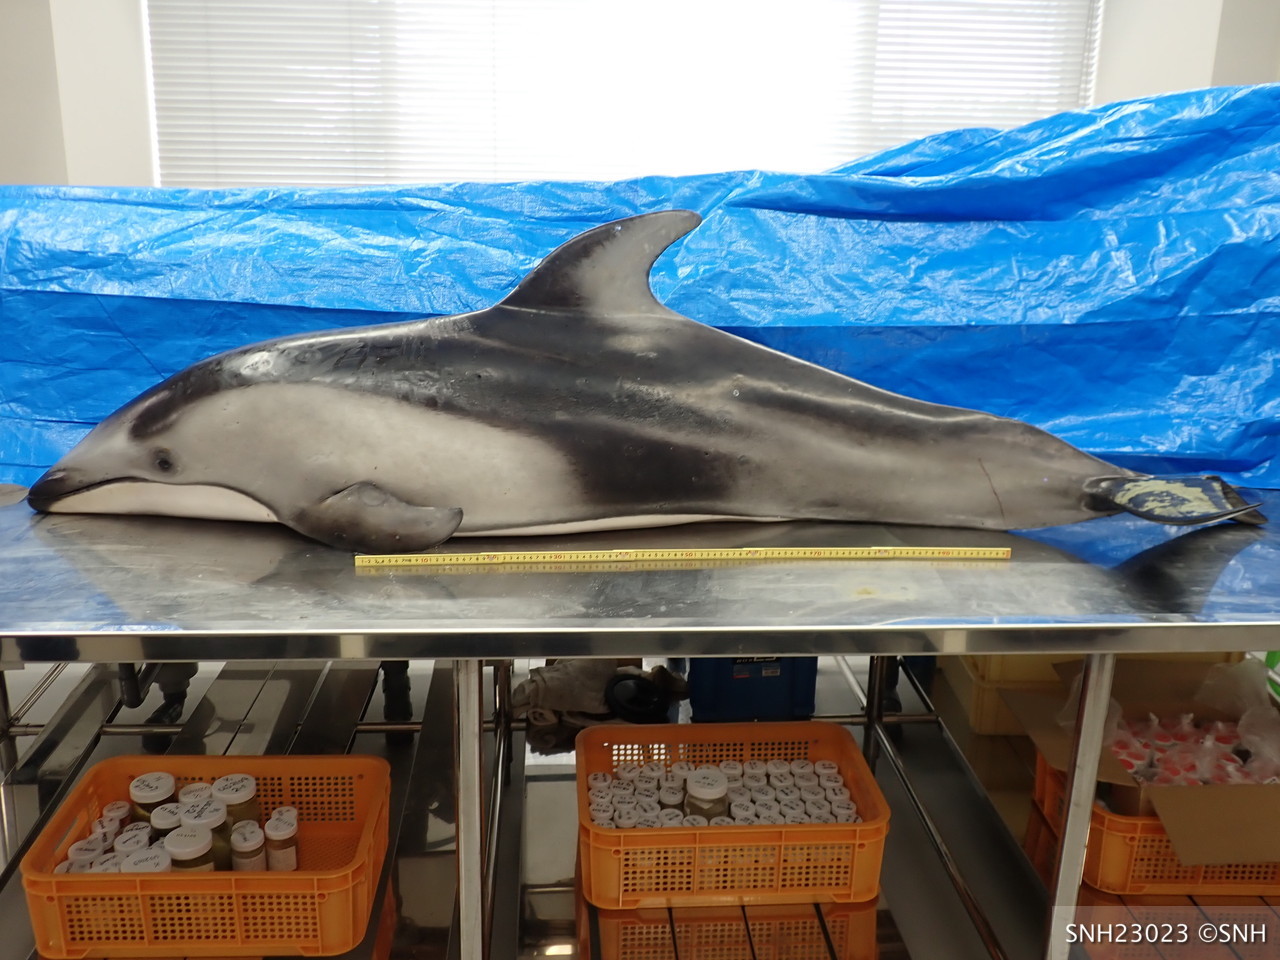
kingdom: Animalia
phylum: Chordata
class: Mammalia
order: Cetacea
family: Delphinidae
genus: Lagenorhynchus
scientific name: Lagenorhynchus obliquidens
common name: Pacific white-sided dolphin
